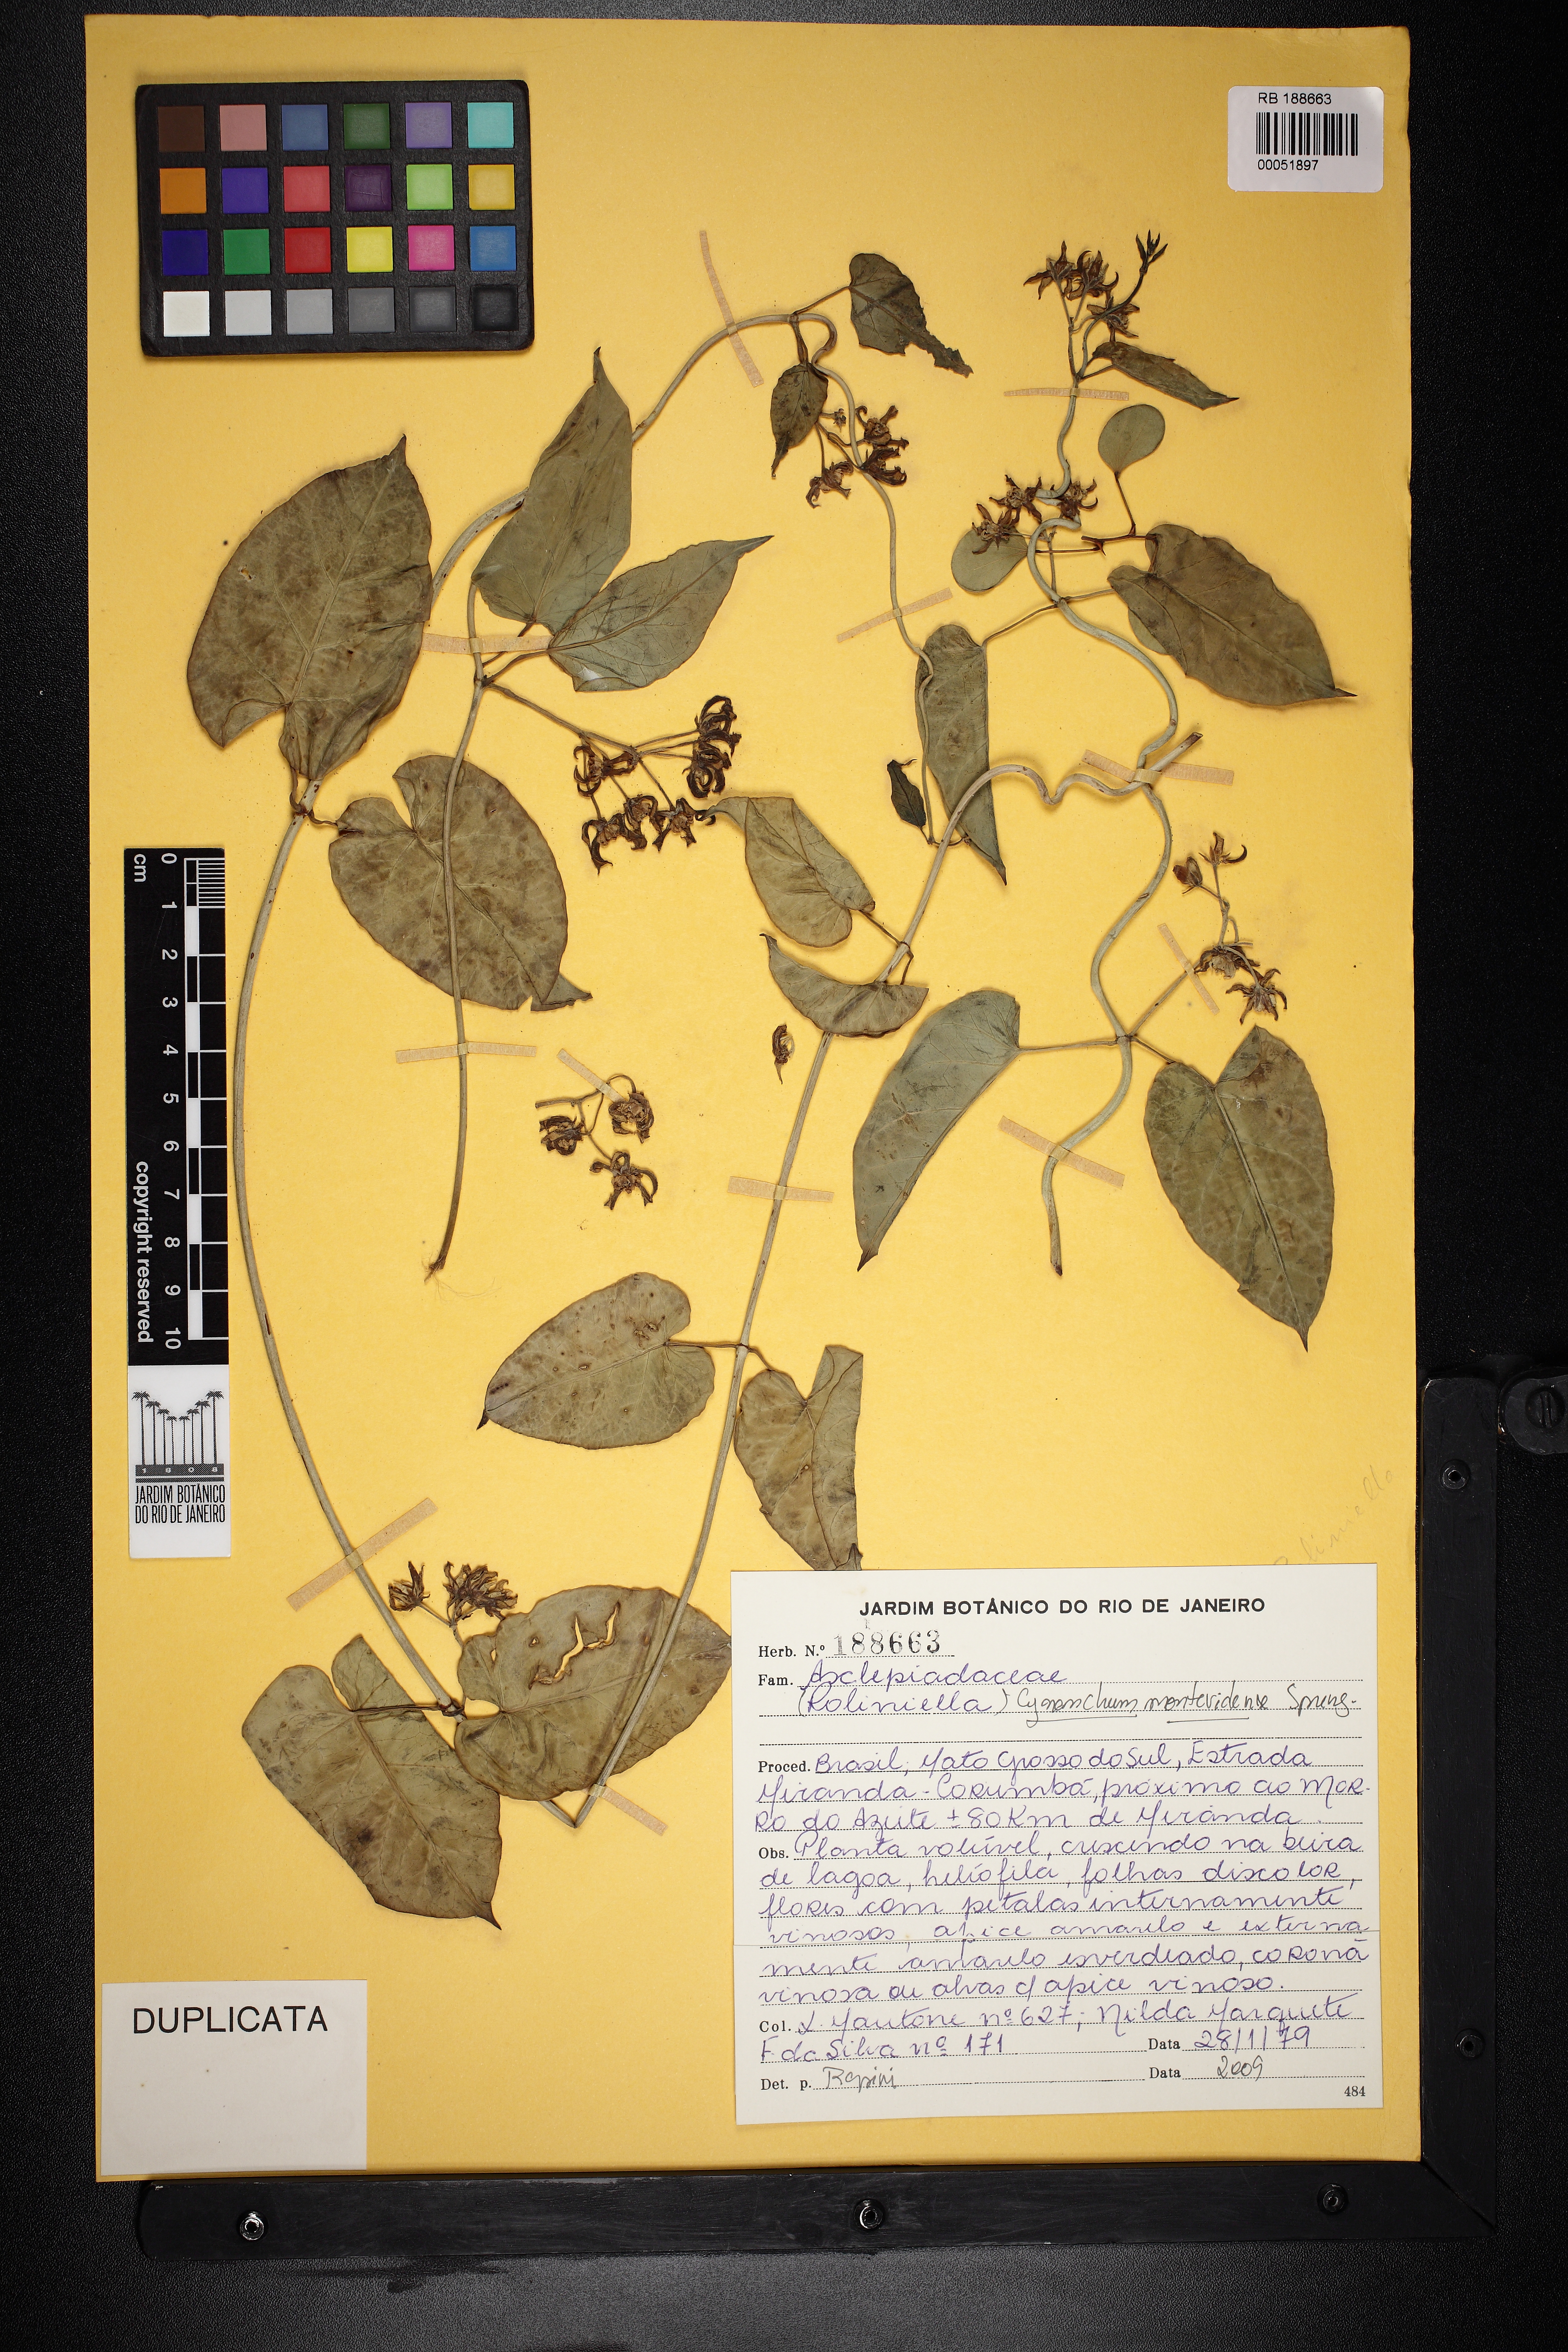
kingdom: Plantae
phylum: Tracheophyta
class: Magnoliopsida
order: Gentianales
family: Apocynaceae
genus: Cynanchum
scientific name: Cynanchum montevidense
